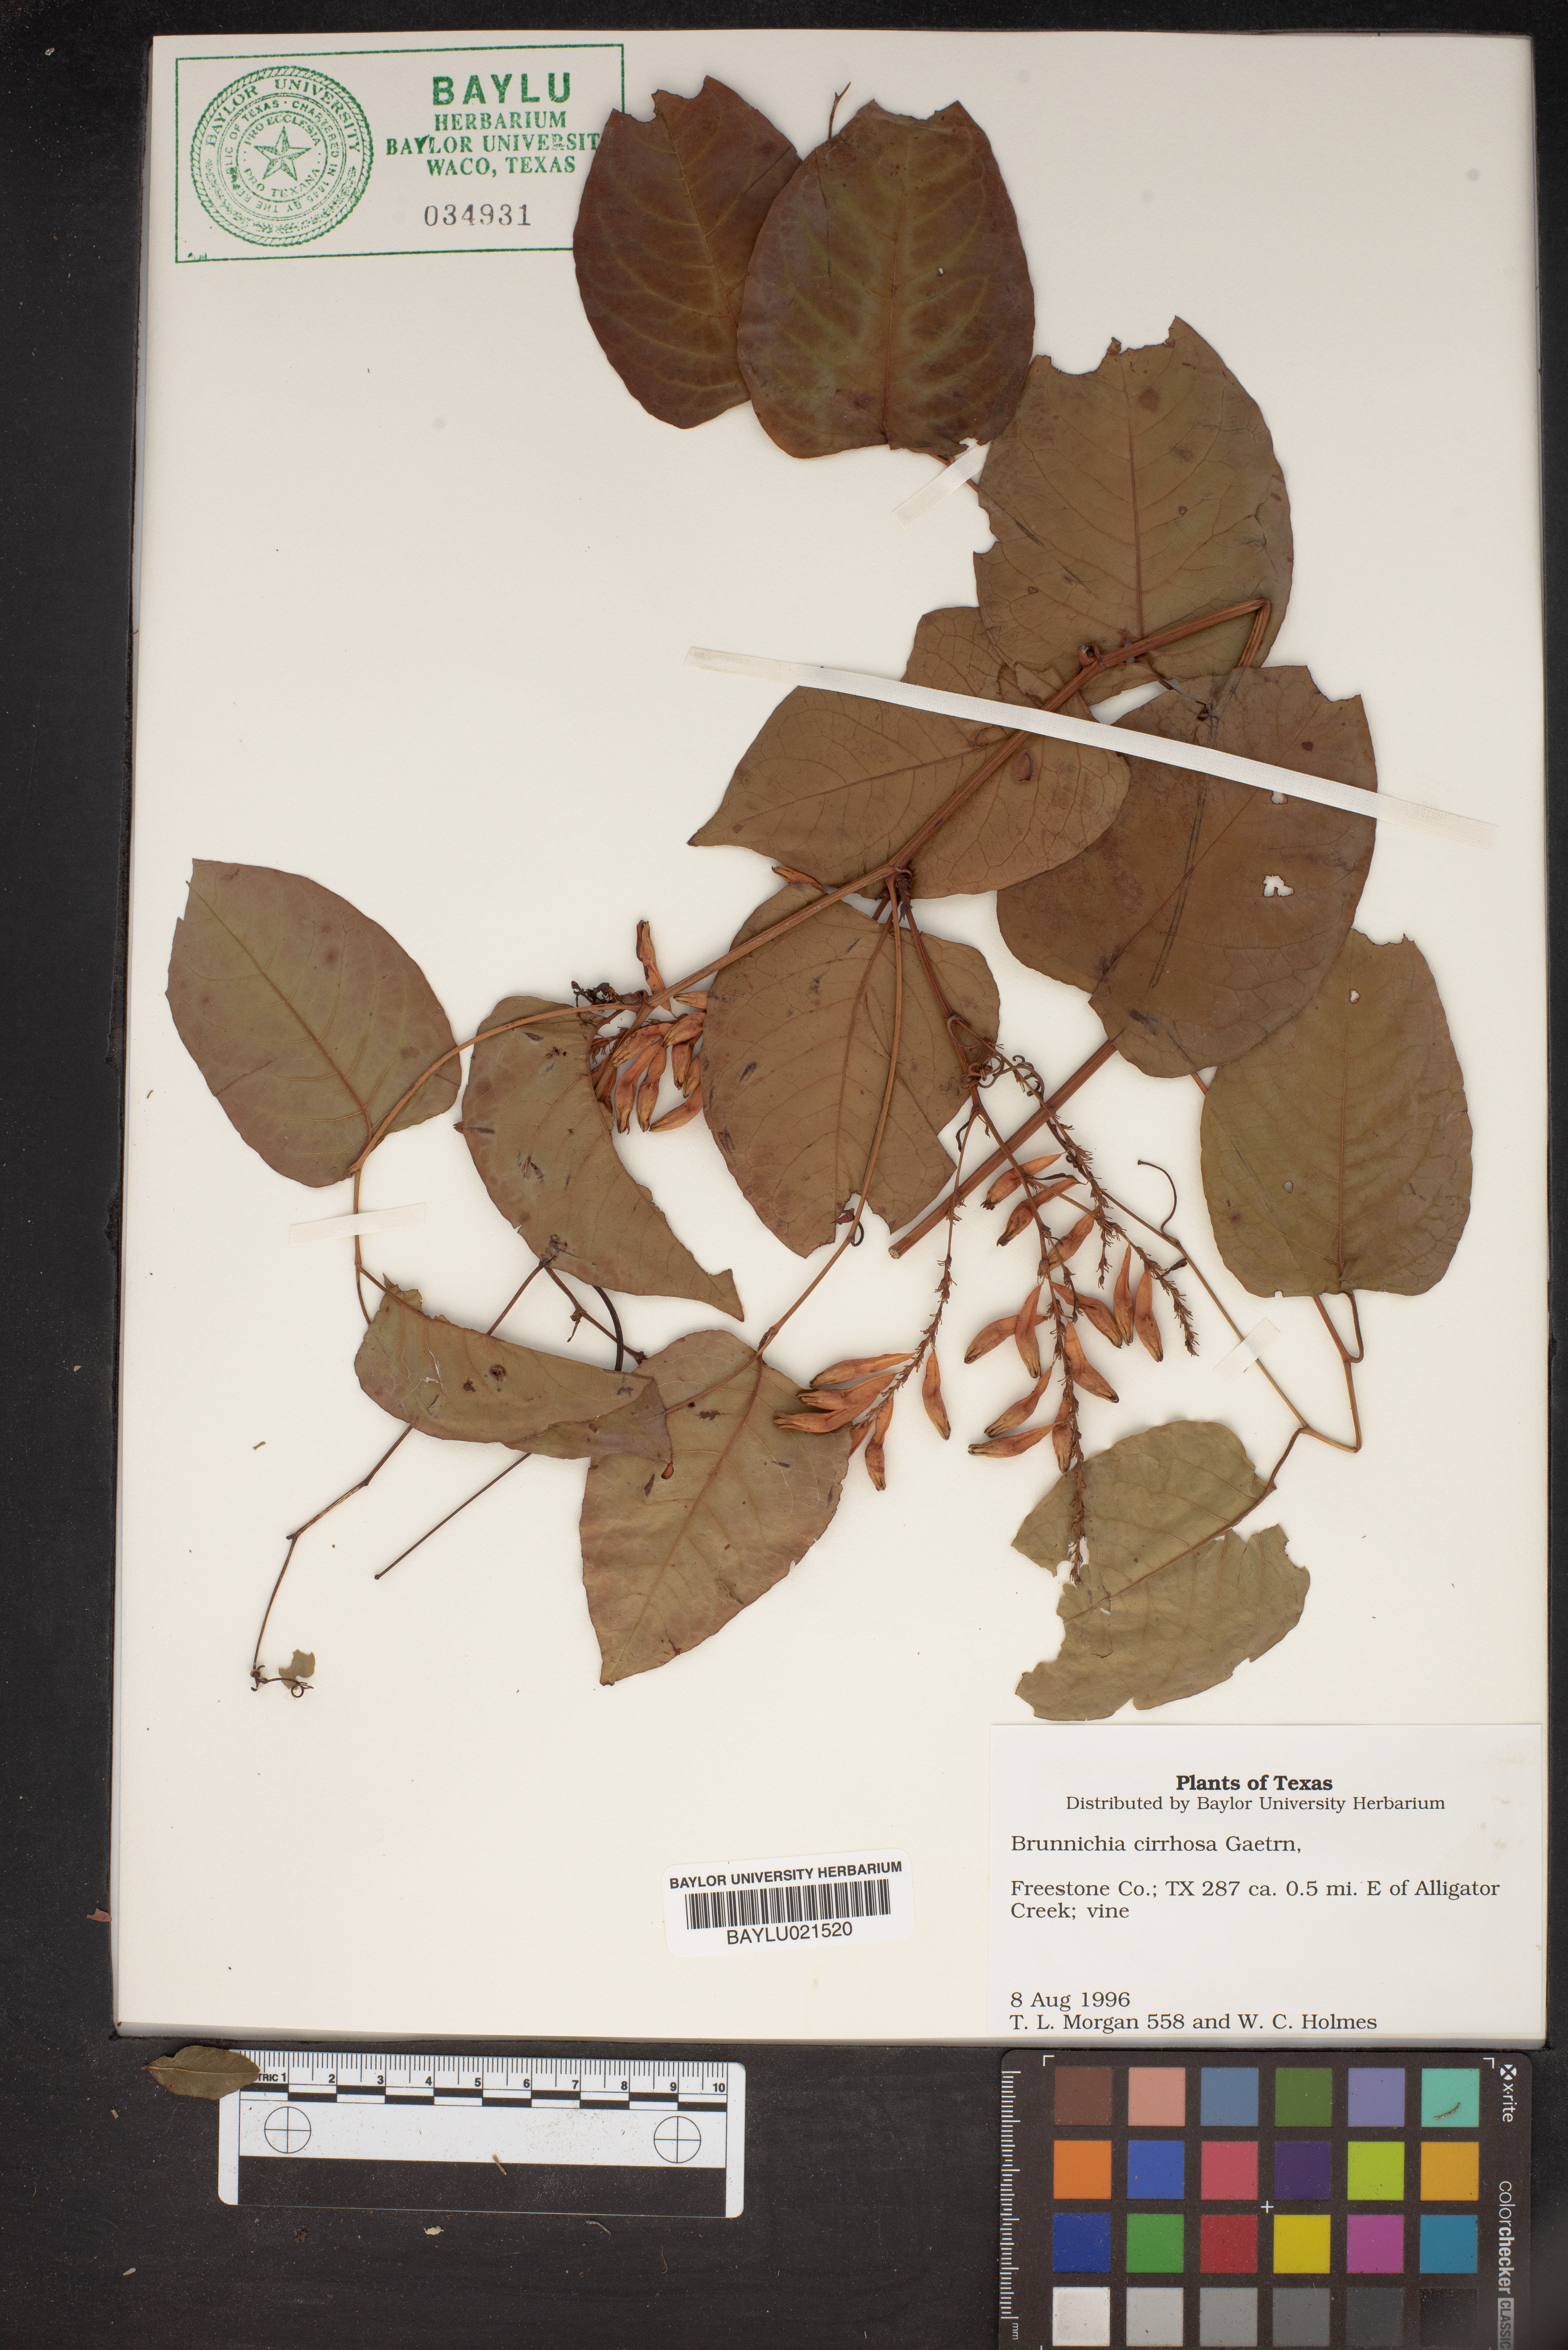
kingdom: Plantae
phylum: Tracheophyta
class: Magnoliopsida
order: Caryophyllales
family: Polygonaceae
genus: Brunnichia
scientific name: Brunnichia ovata
